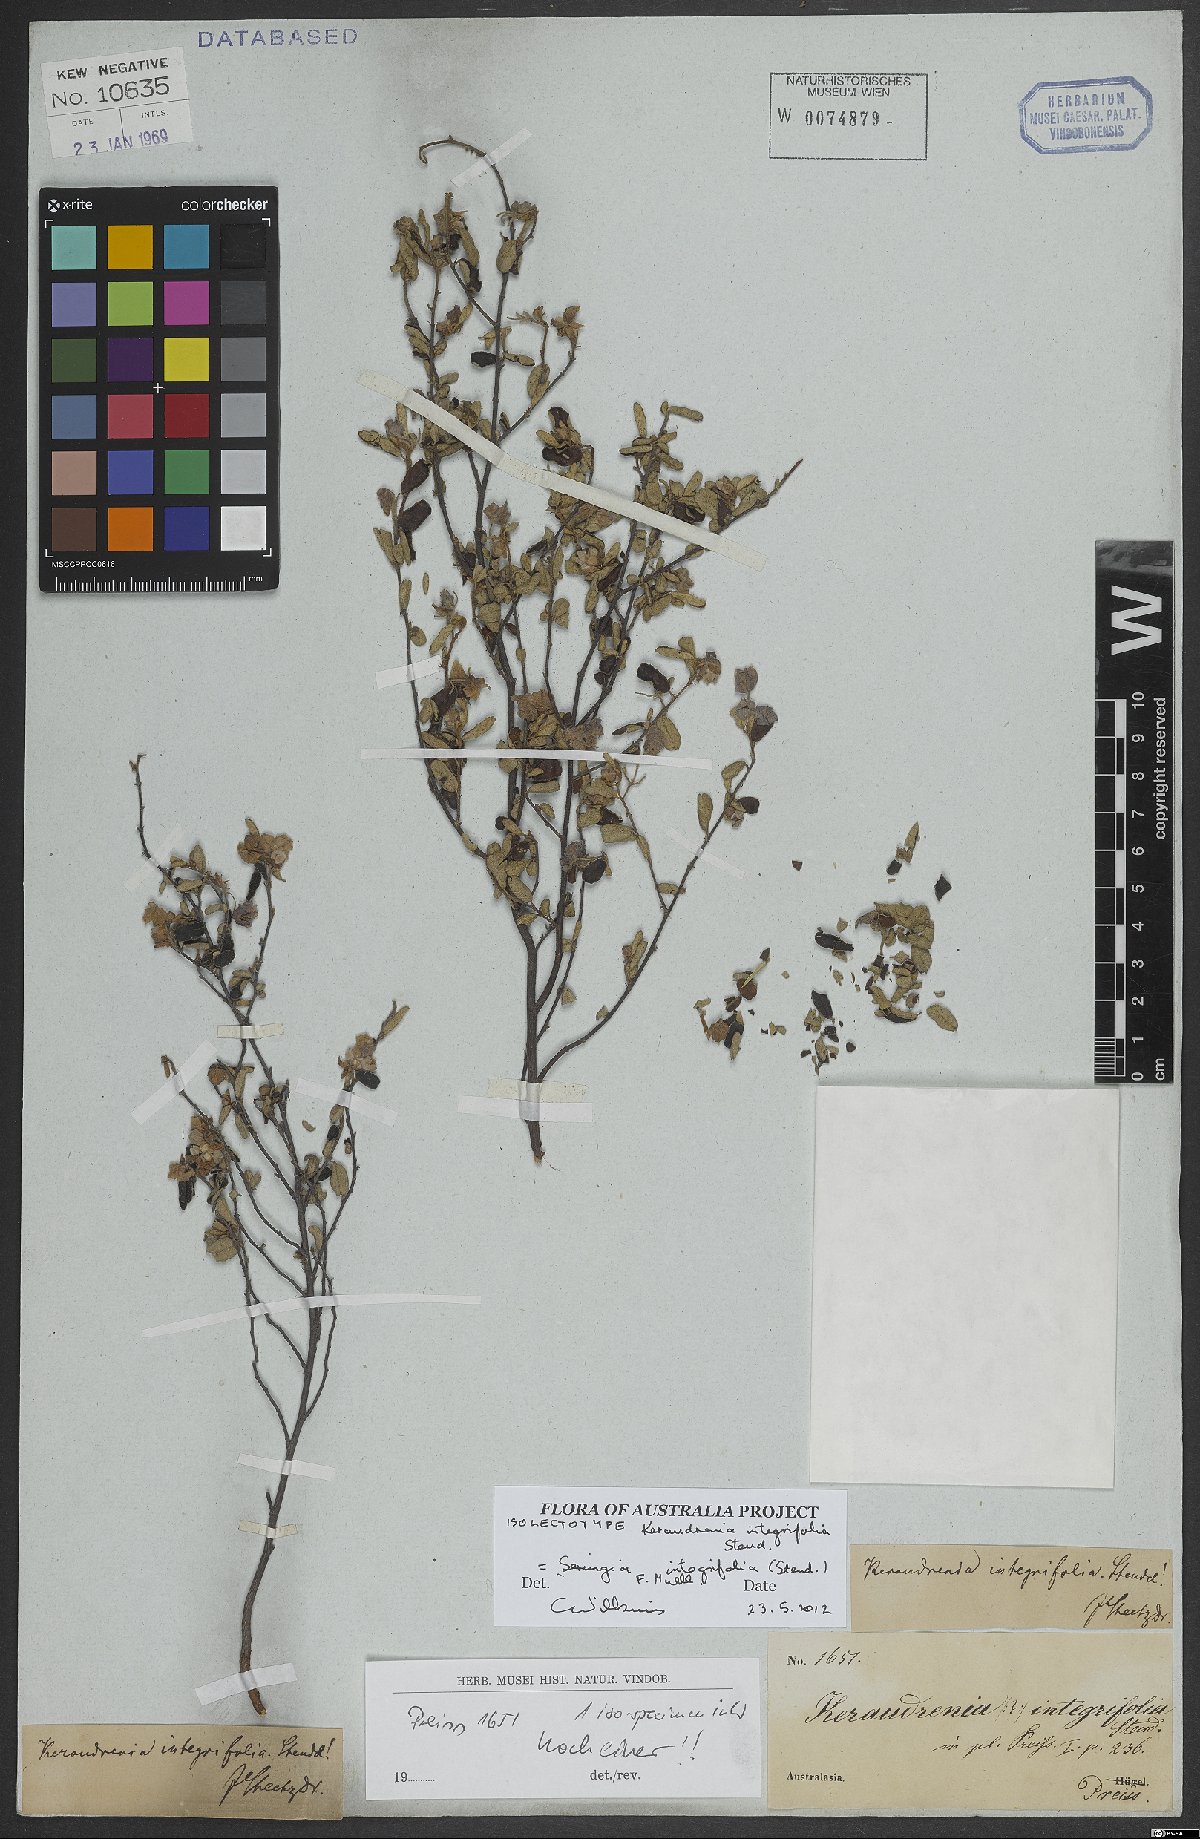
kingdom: Plantae
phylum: Tracheophyta
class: Magnoliopsida
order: Malvales
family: Malvaceae
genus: Seringia
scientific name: Seringia integrifolia
